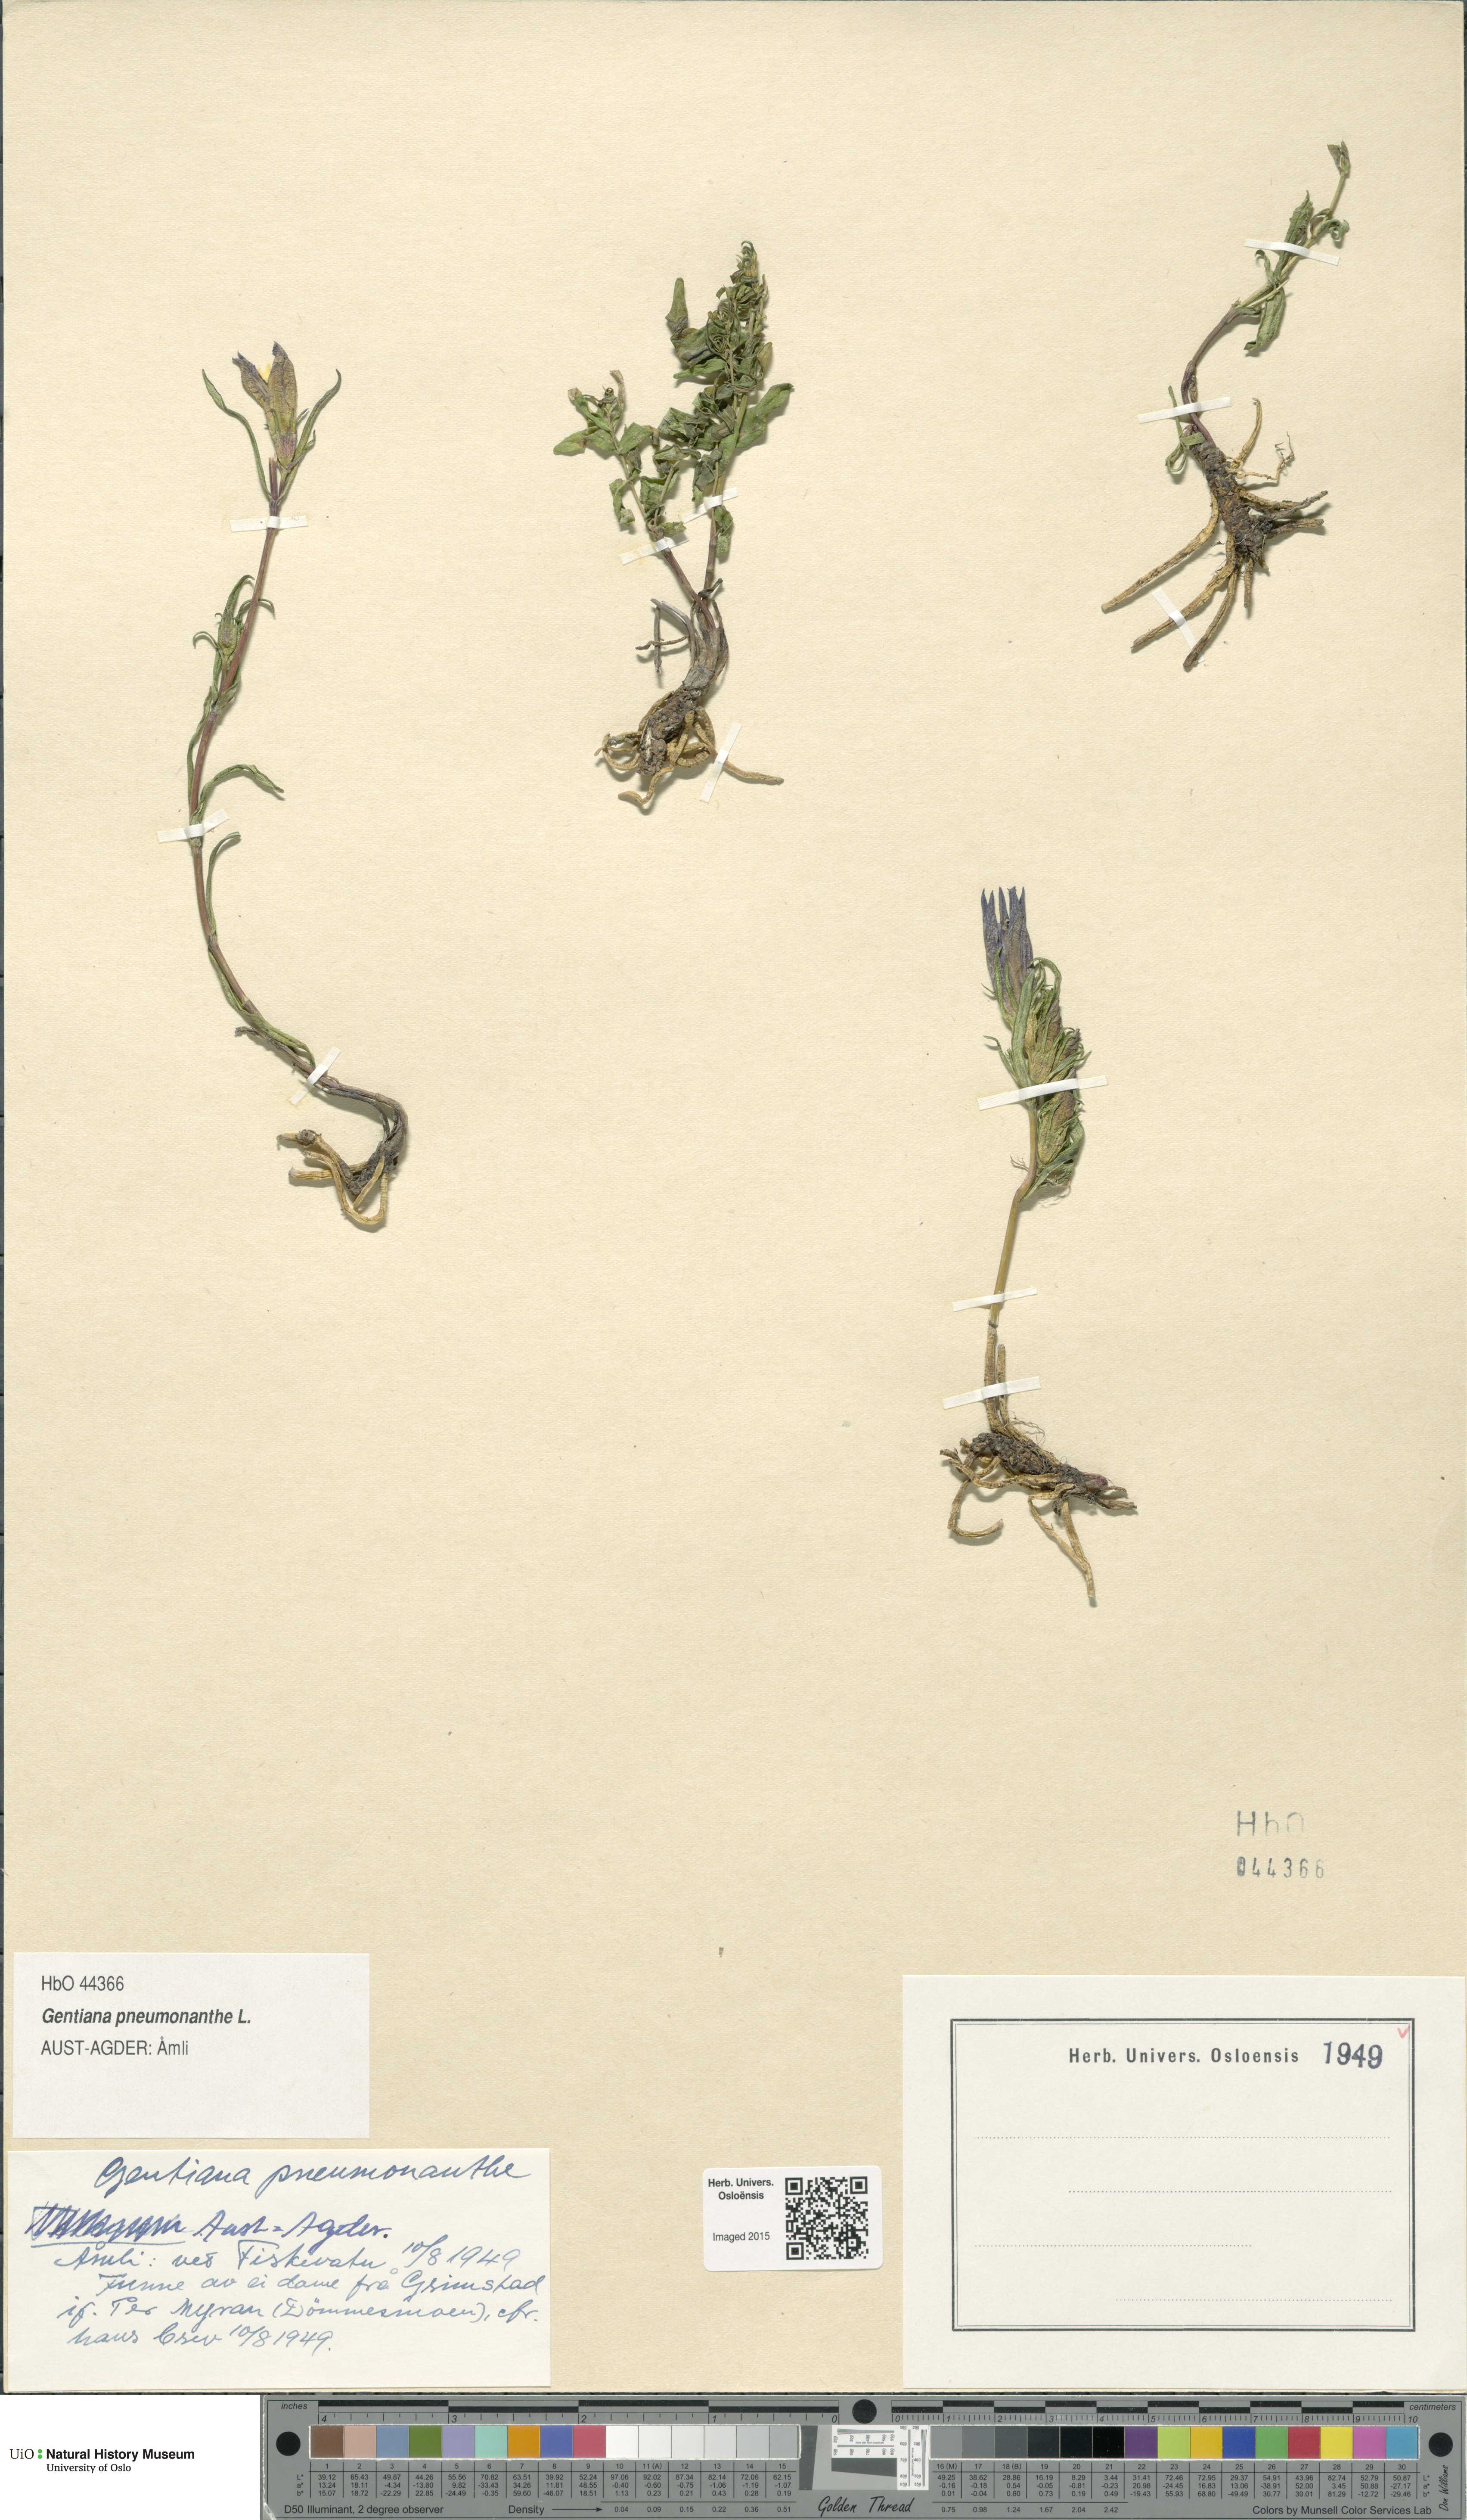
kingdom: Plantae
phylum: Tracheophyta
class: Magnoliopsida
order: Gentianales
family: Gentianaceae
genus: Gentiana
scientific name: Gentiana pneumonanthe
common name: Marsh gentian
